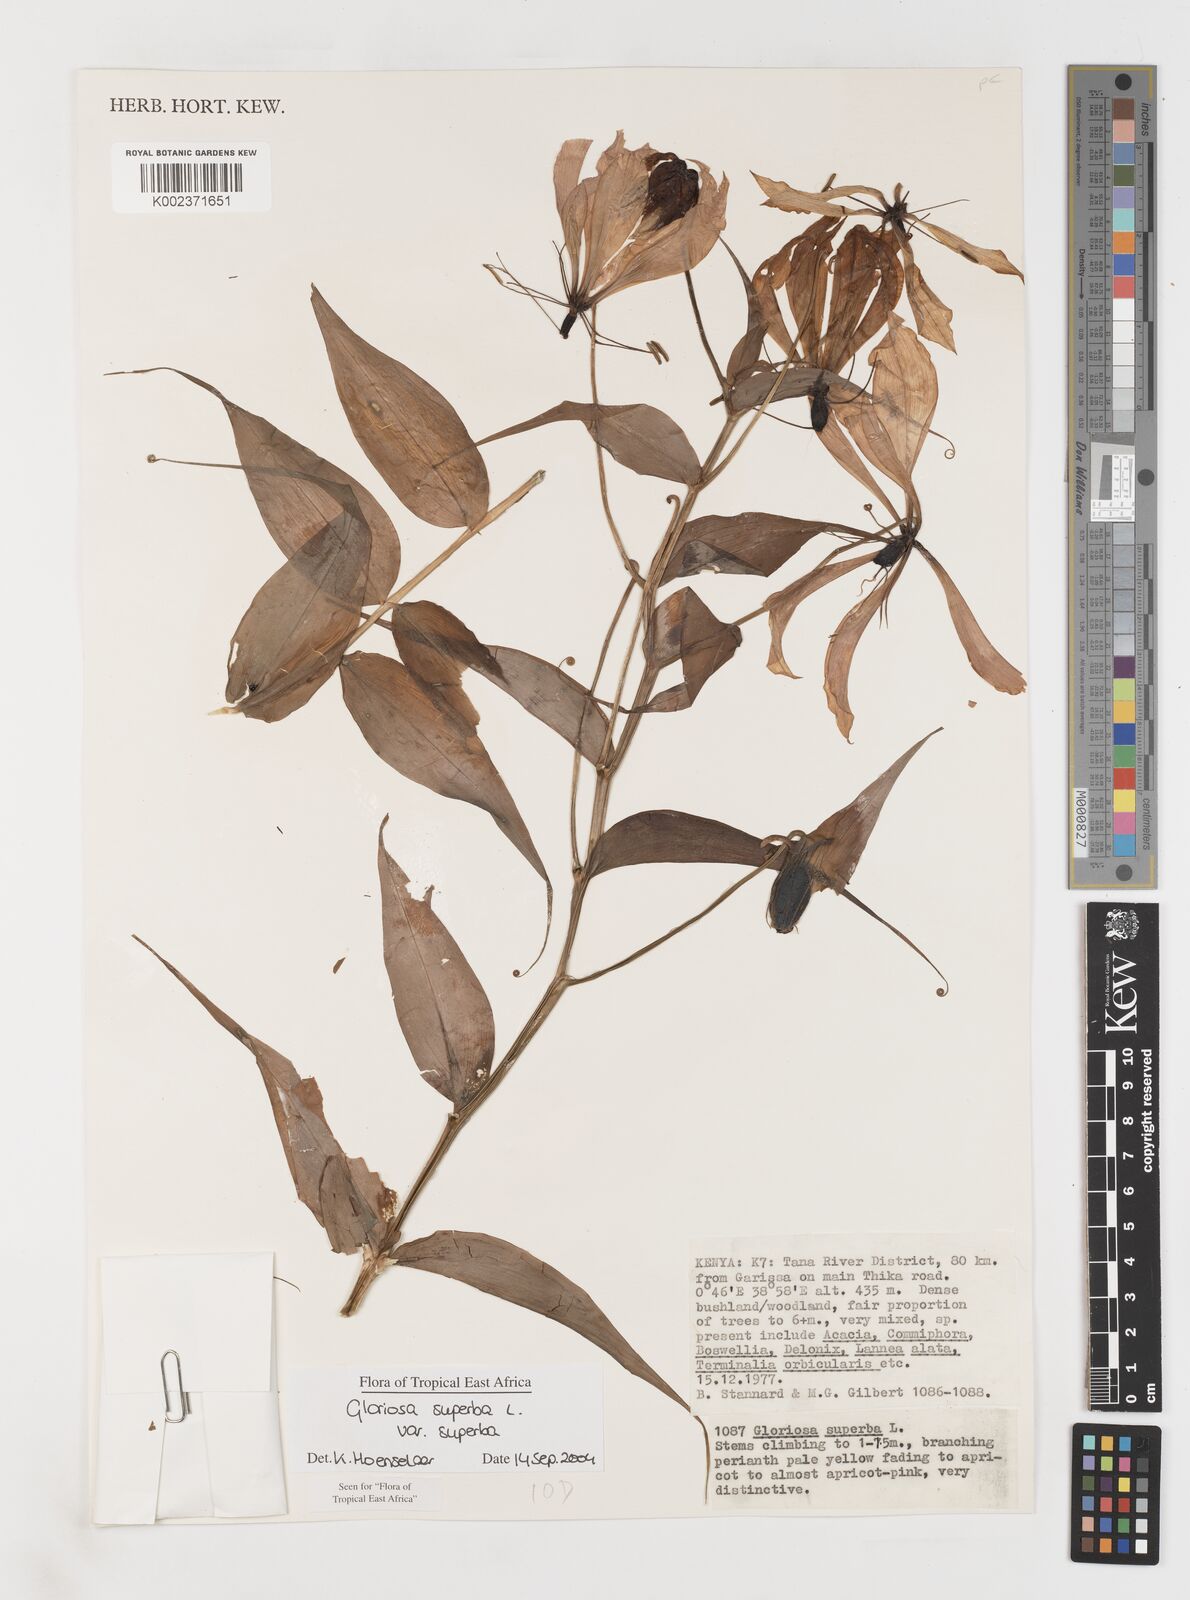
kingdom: Plantae
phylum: Tracheophyta
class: Liliopsida
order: Liliales
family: Colchicaceae
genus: Gloriosa
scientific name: Gloriosa simplex
